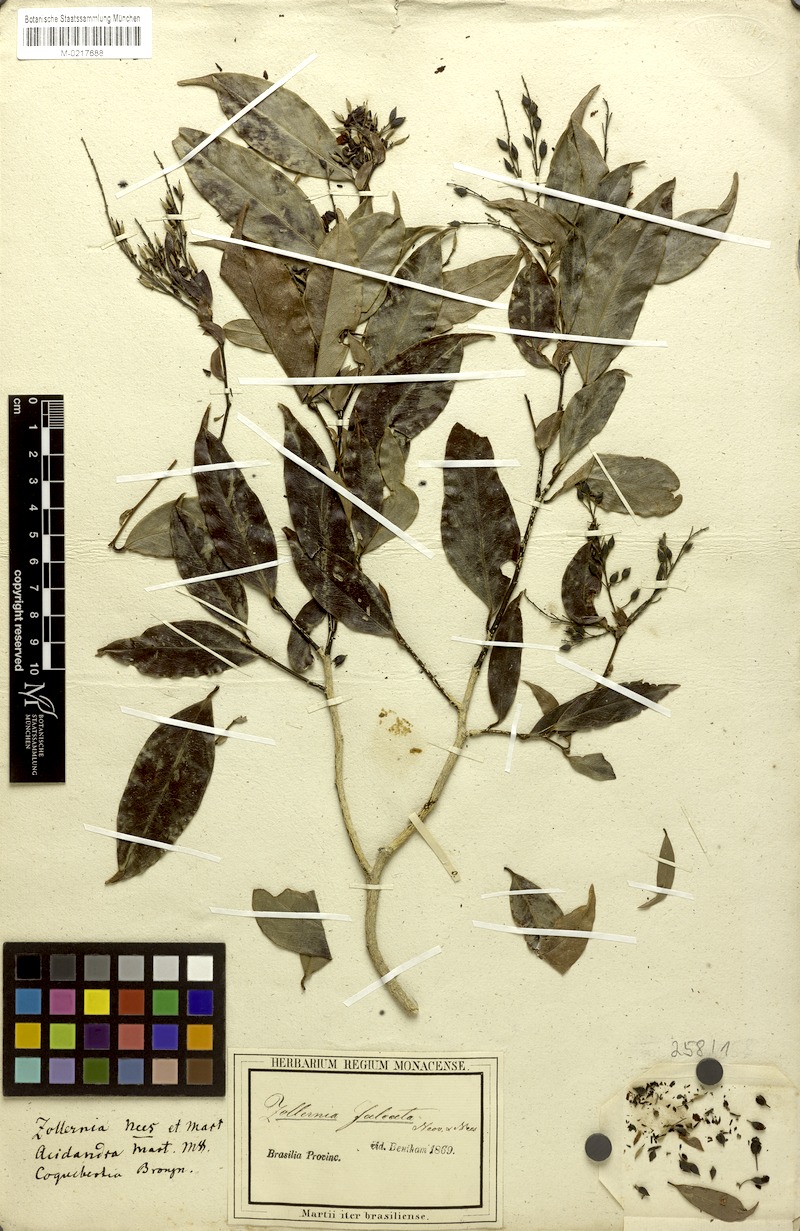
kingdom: Plantae
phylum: Tracheophyta
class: Magnoliopsida
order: Fabales
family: Fabaceae
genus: Zollernia
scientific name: Zollernia glabra
